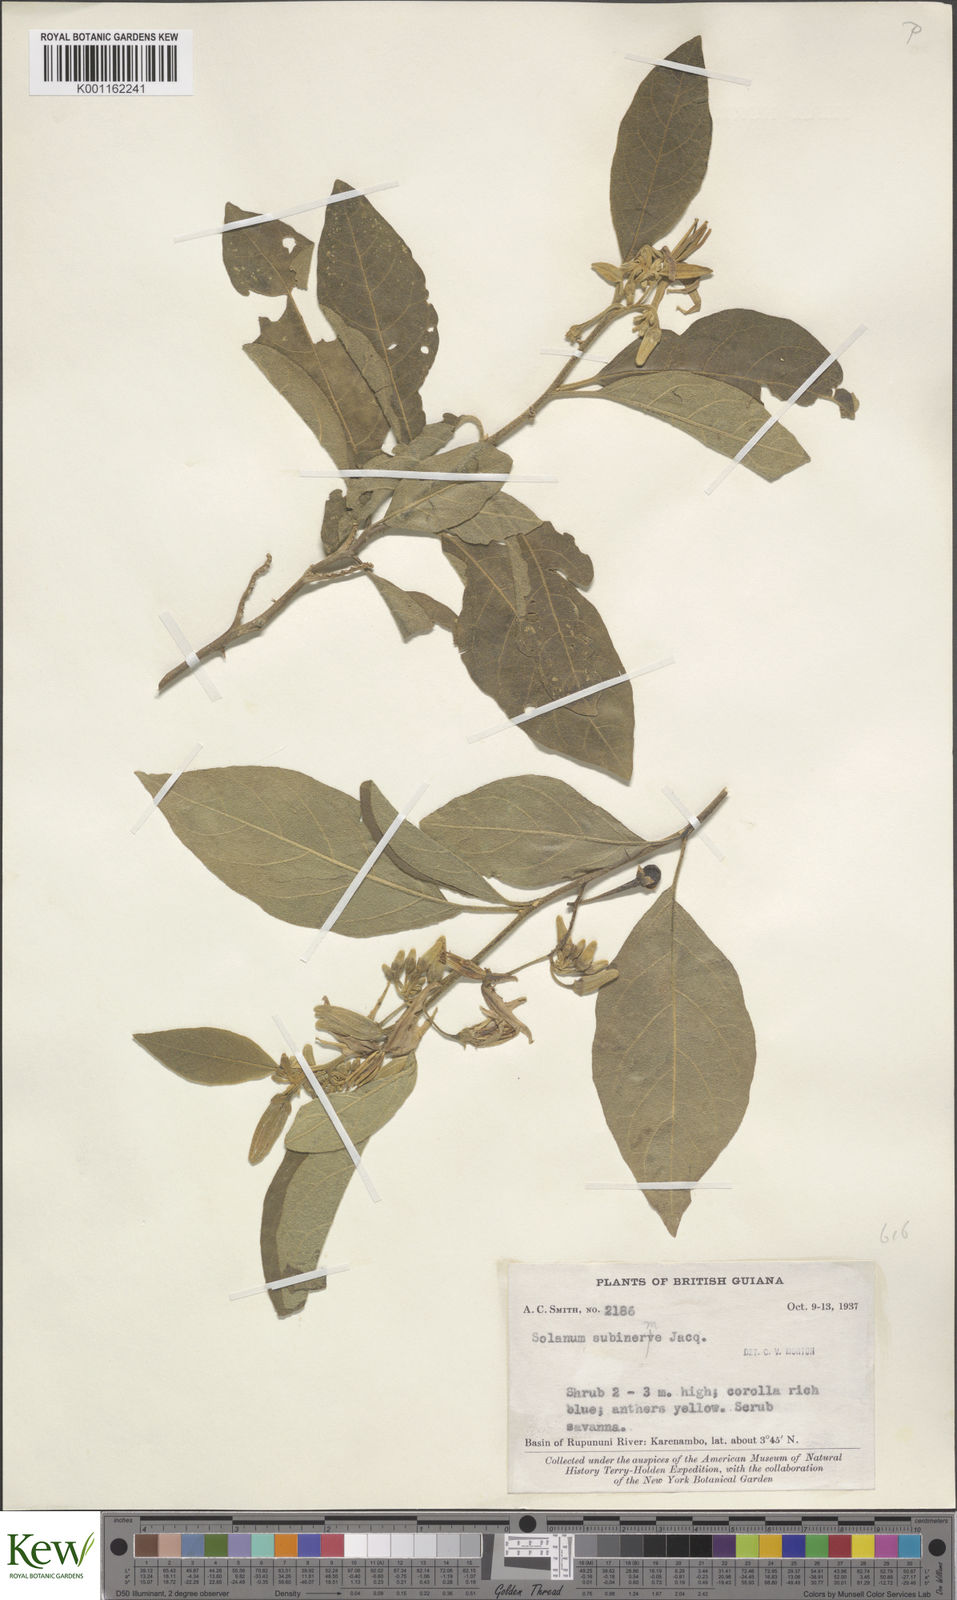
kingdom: Plantae
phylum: Tracheophyta
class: Magnoliopsida
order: Solanales
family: Solanaceae
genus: Solanum
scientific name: Solanum subinerme
